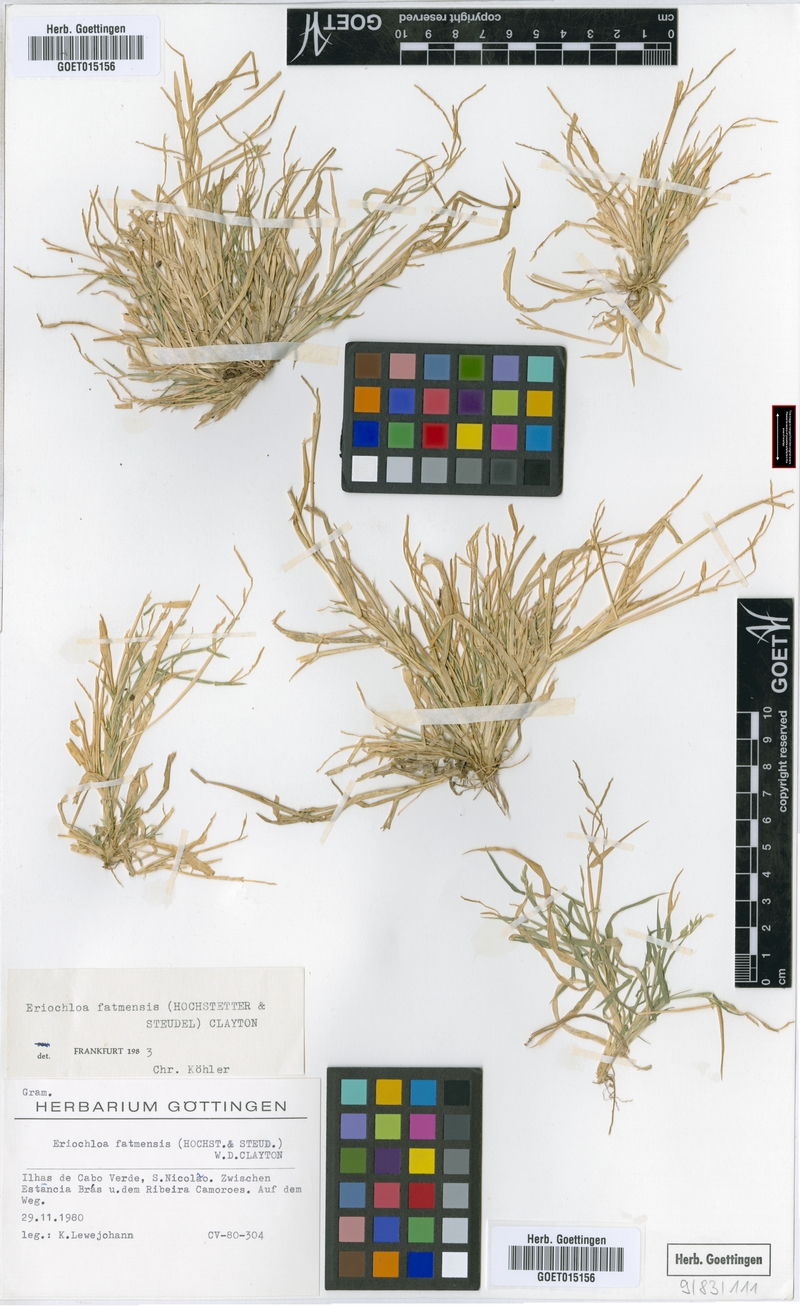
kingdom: Plantae
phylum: Tracheophyta
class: Liliopsida
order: Poales
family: Poaceae
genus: Eriochloa
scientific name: Eriochloa barbatus
